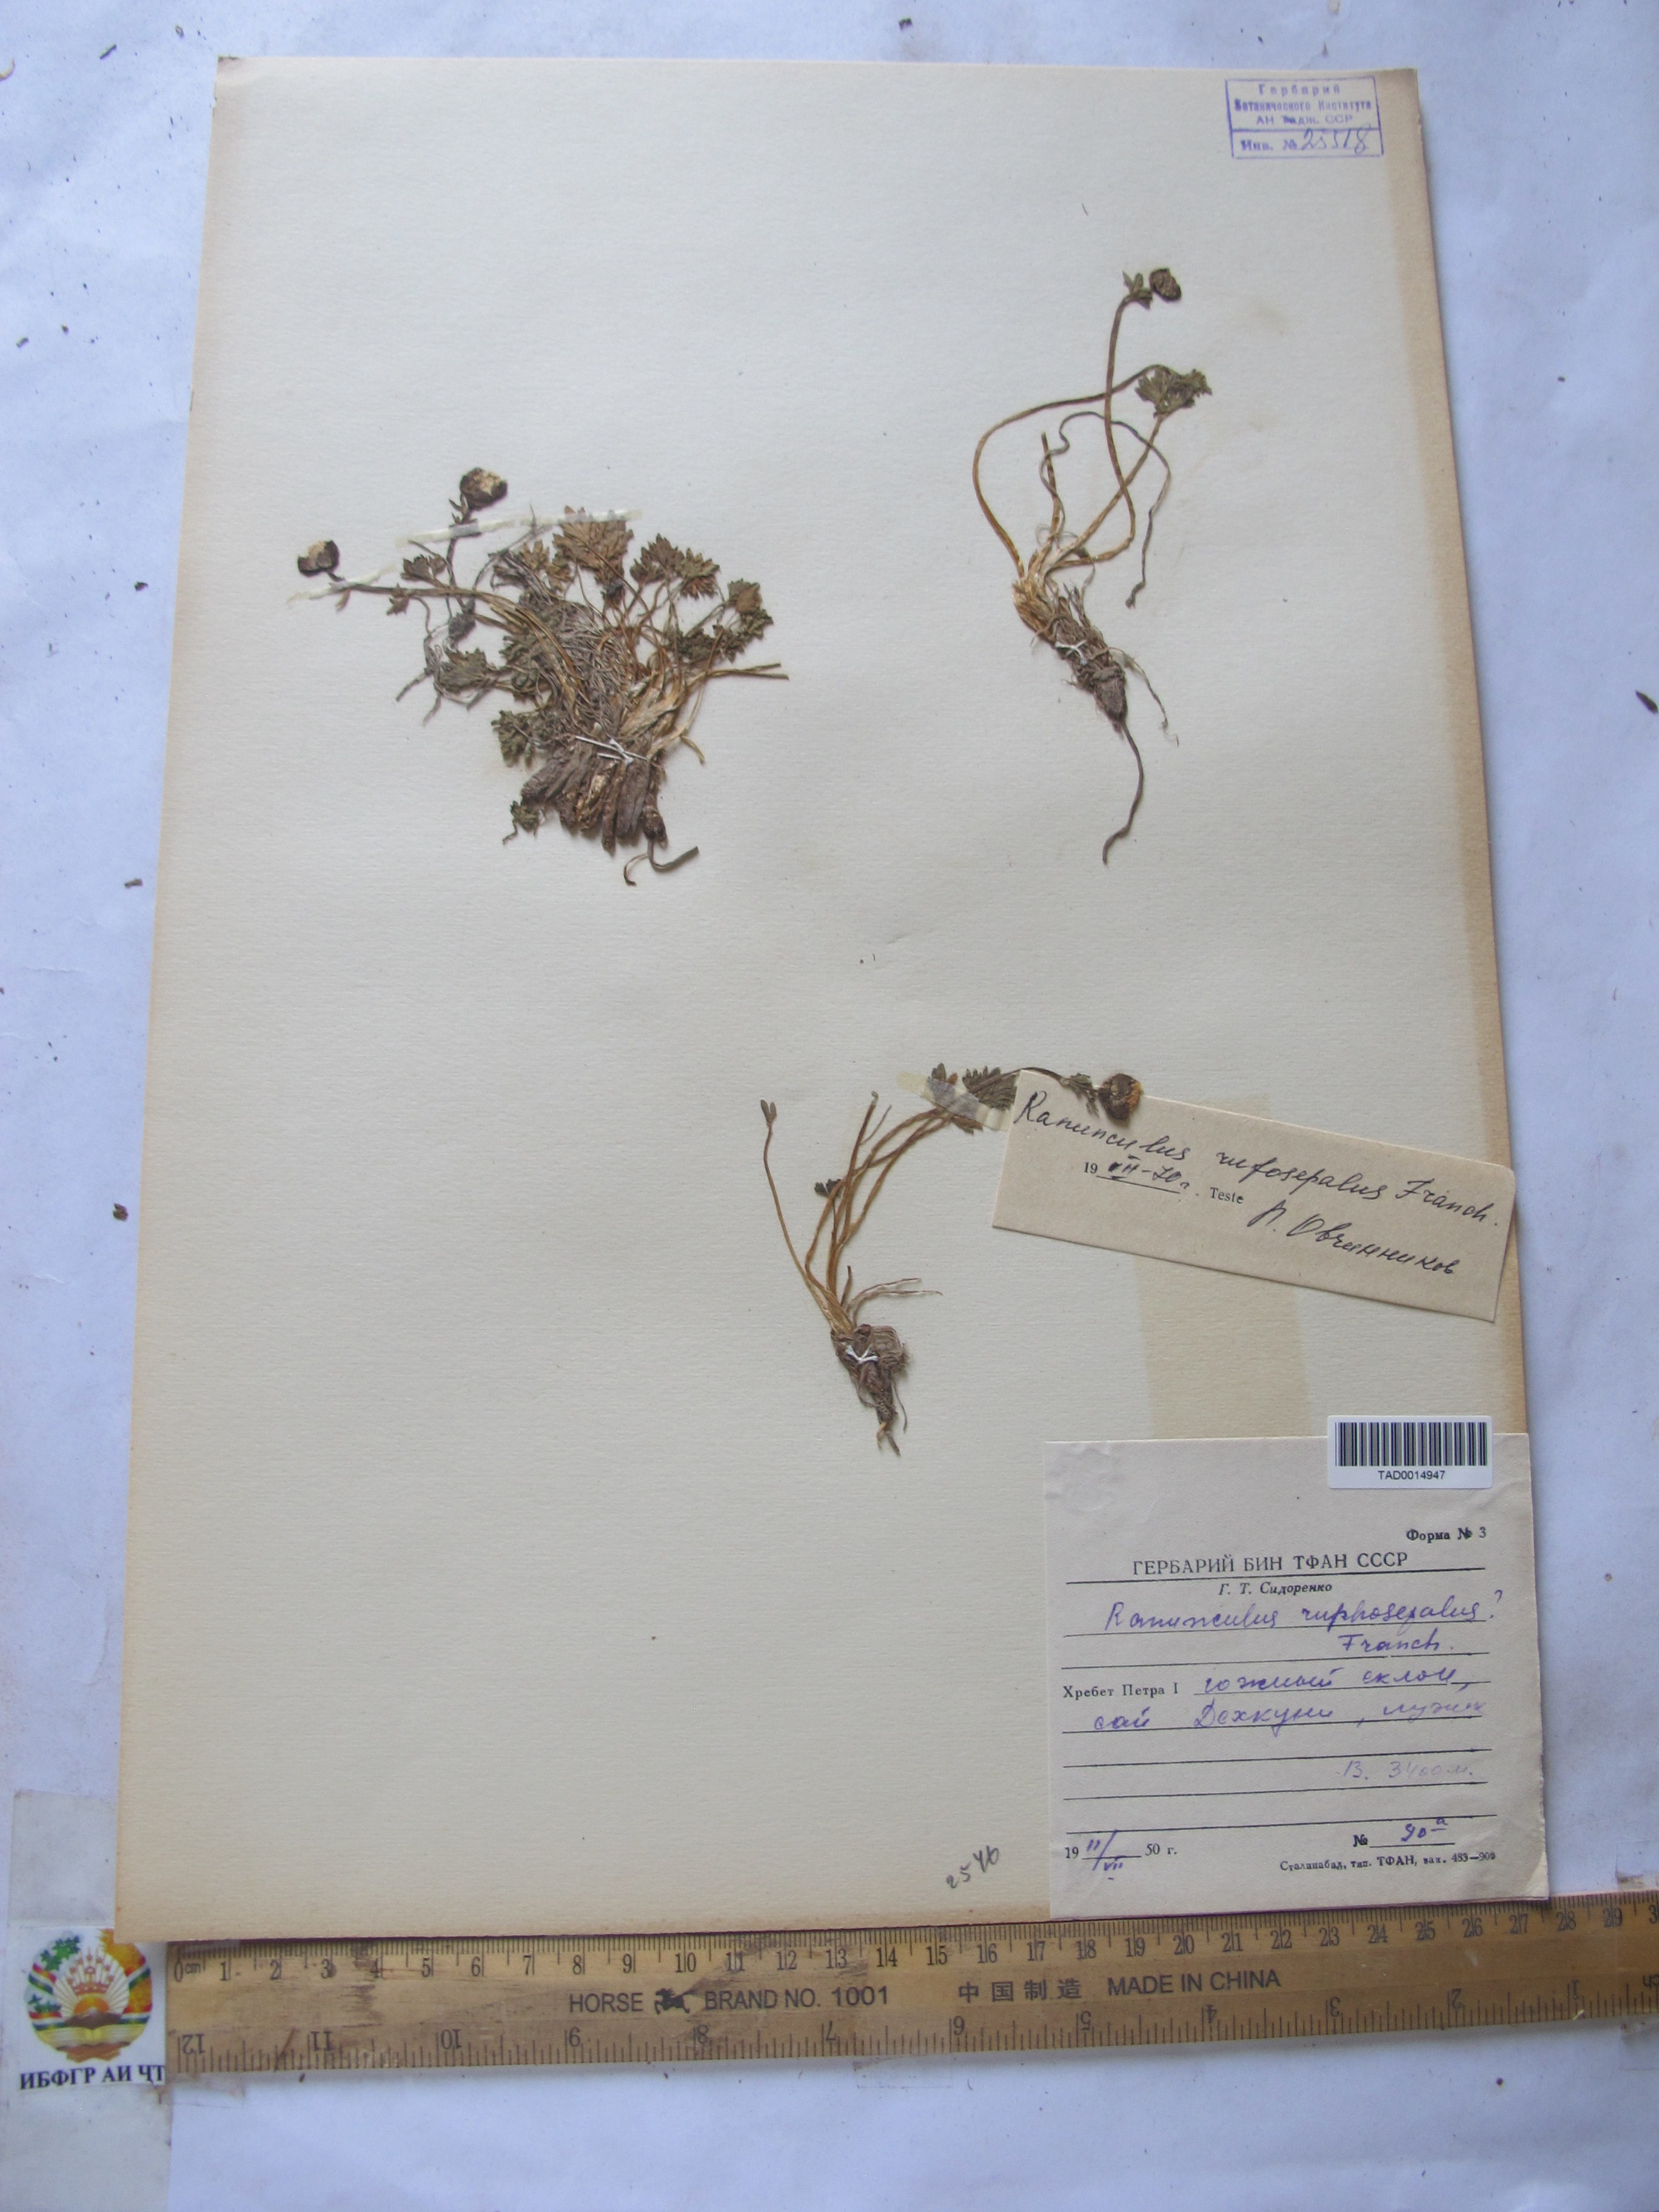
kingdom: Plantae
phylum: Tracheophyta
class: Magnoliopsida
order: Ranunculales
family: Ranunculaceae
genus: Ranunculus
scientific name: Ranunculus rufosepalus
